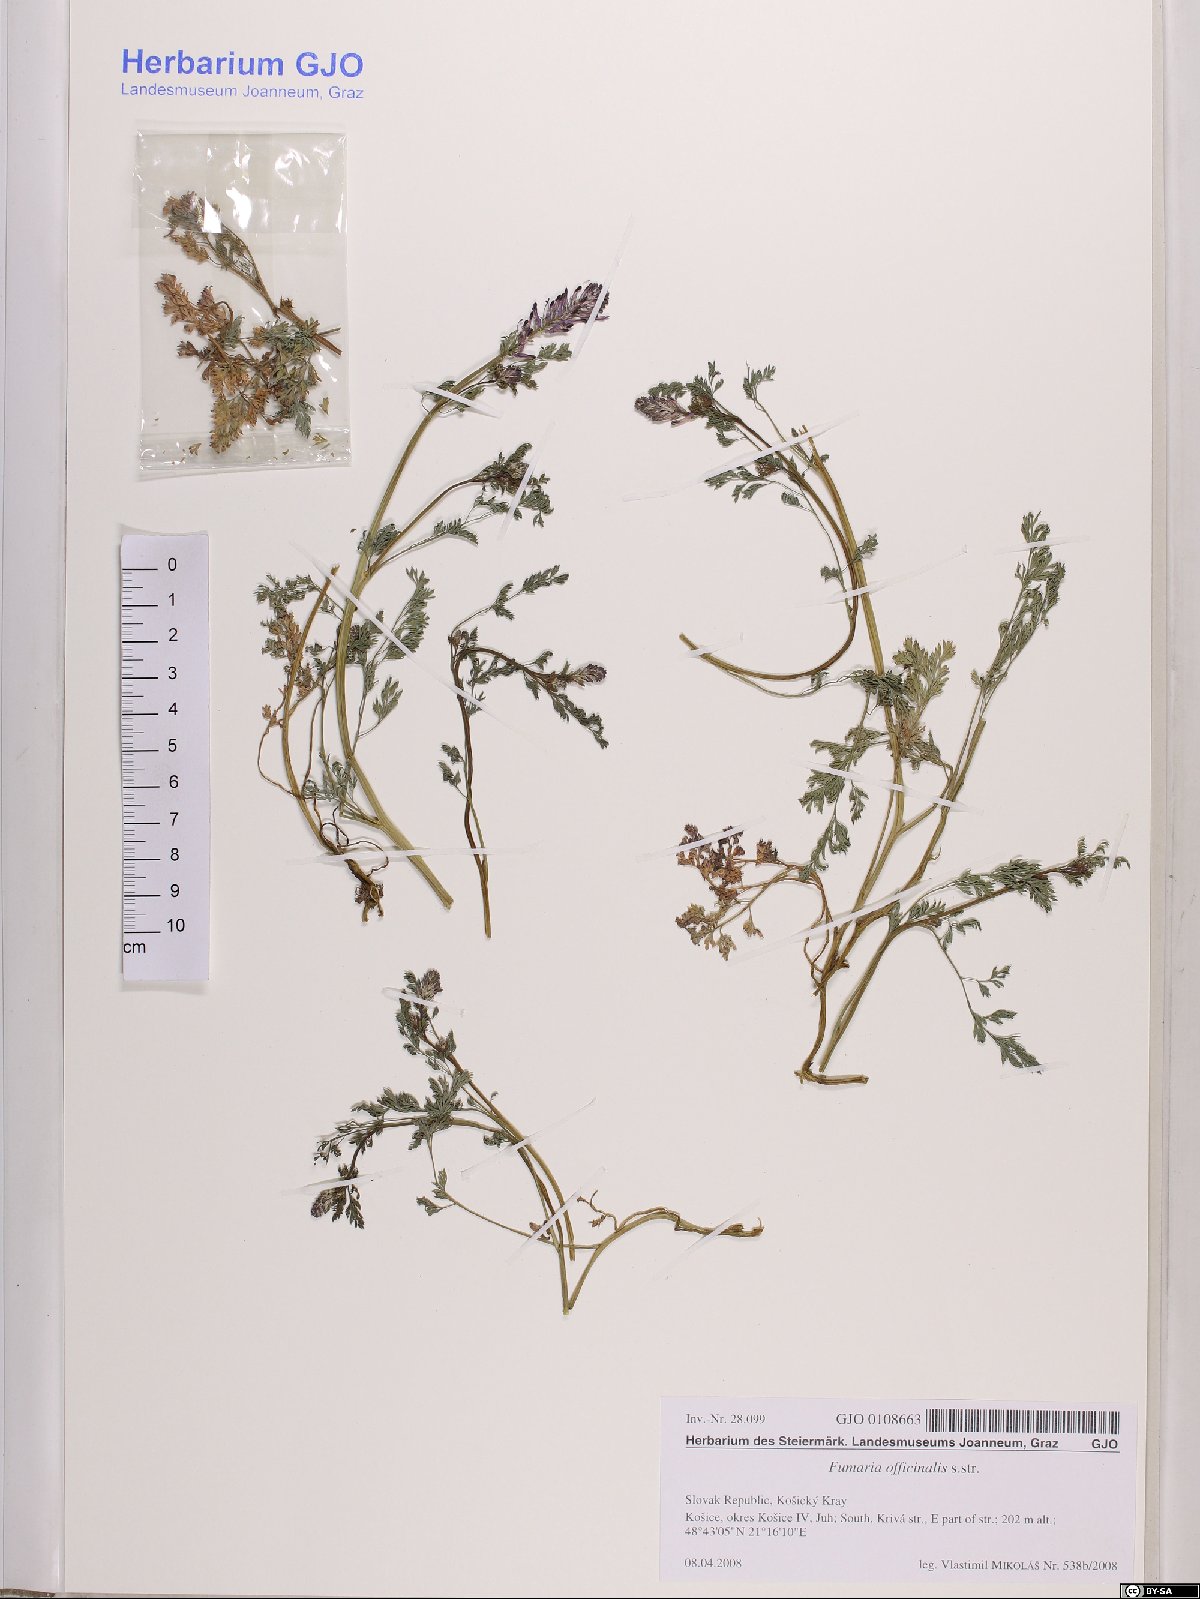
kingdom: Plantae
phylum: Tracheophyta
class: Magnoliopsida
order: Ranunculales
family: Papaveraceae
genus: Fumaria
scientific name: Fumaria officinalis
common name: Common fumitory
